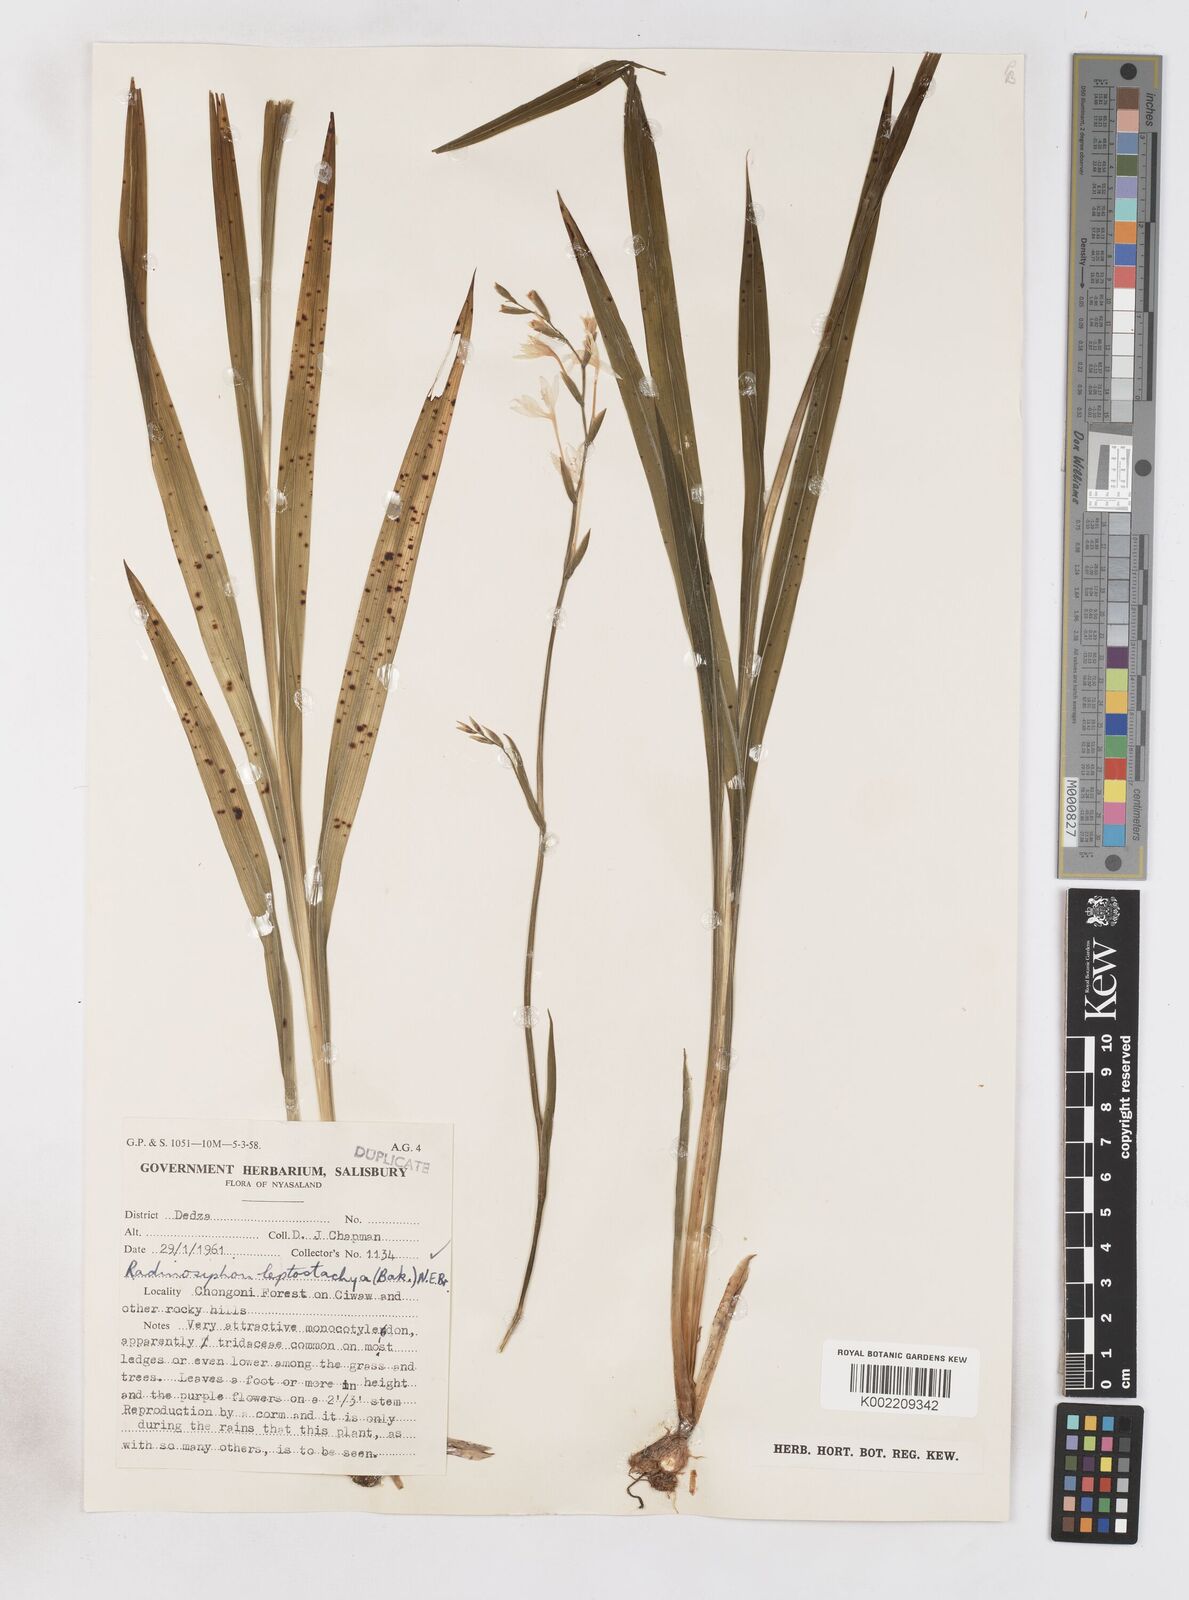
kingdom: Plantae
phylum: Tracheophyta
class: Liliopsida
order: Asparagales
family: Iridaceae
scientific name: Iridaceae
